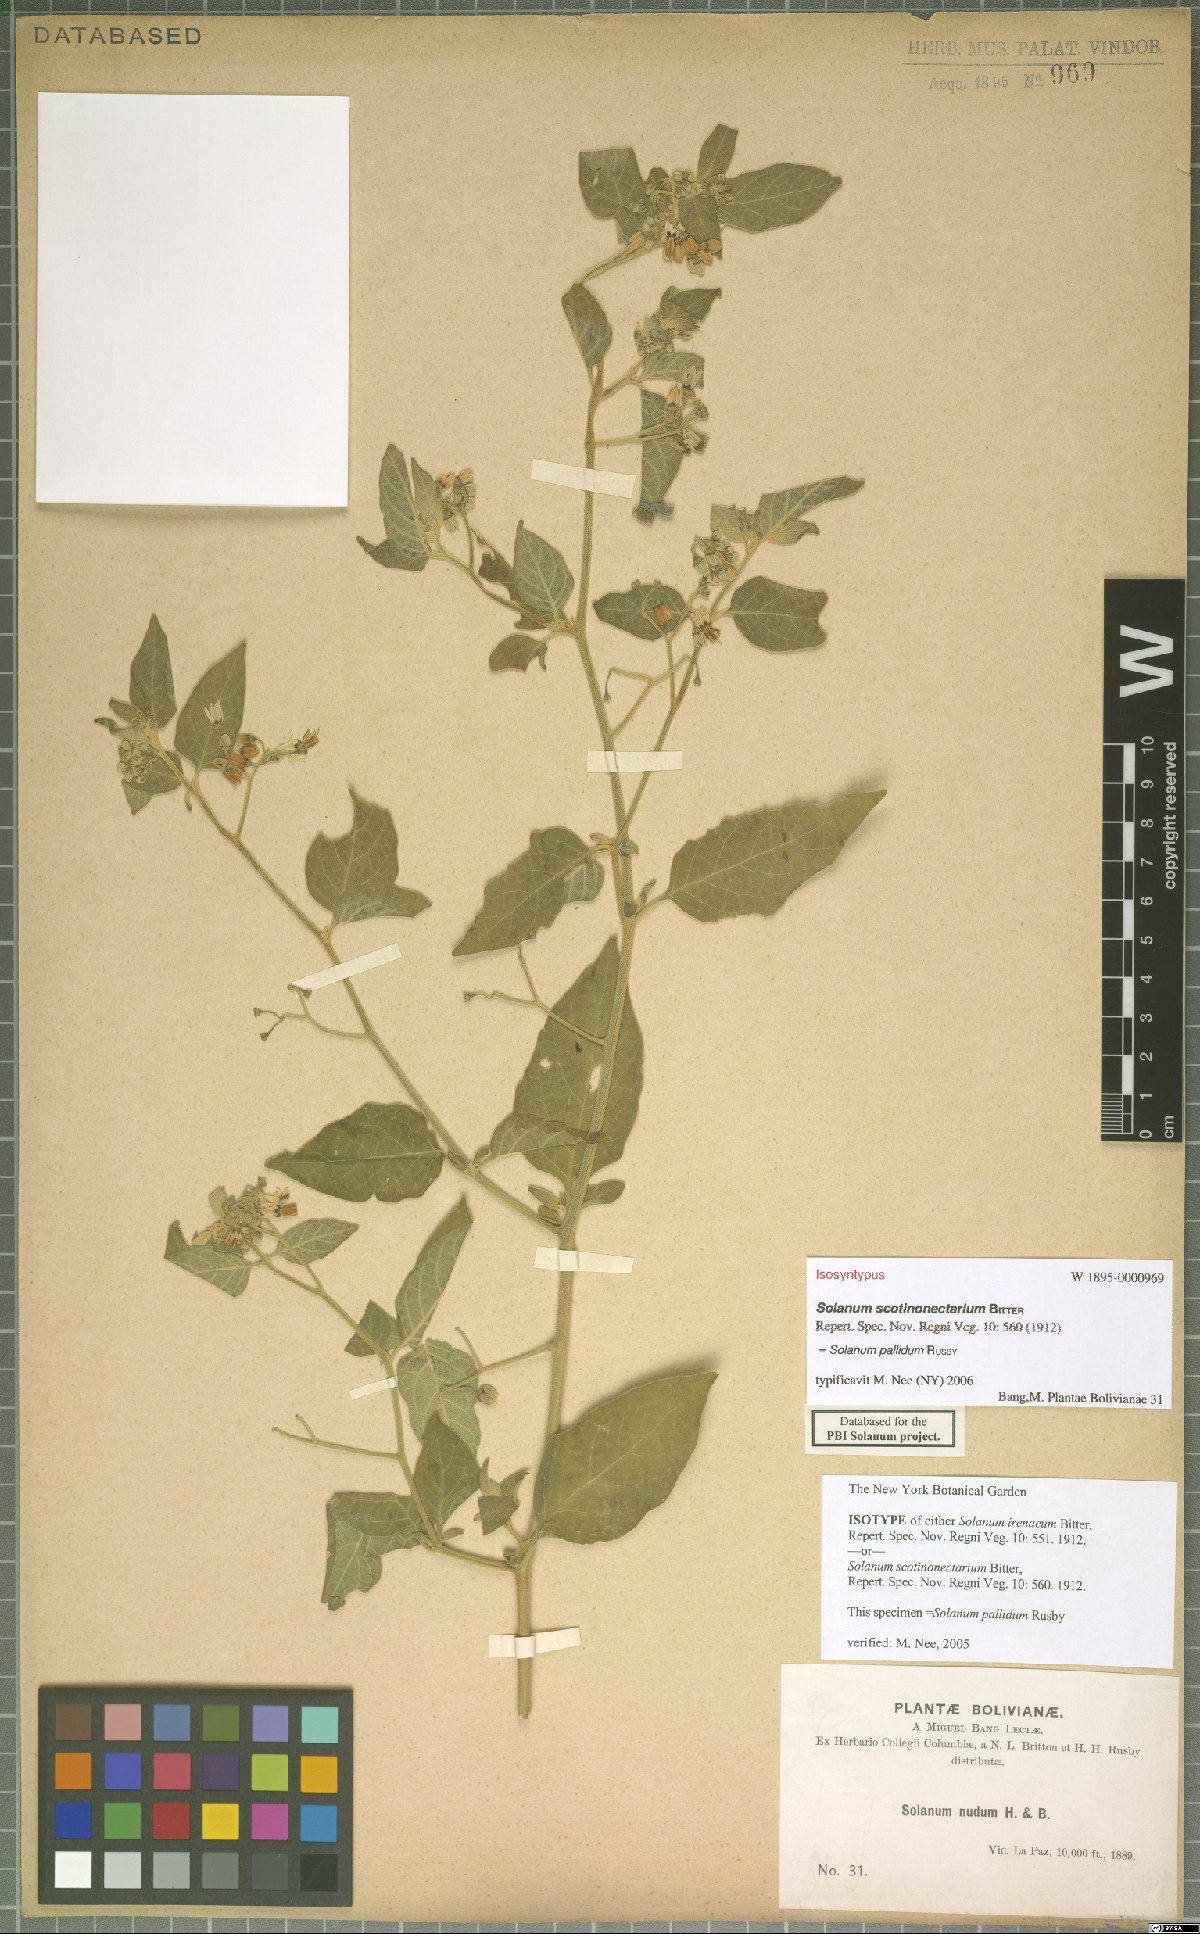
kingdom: Plantae
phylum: Tracheophyta
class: Magnoliopsida
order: Solanales
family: Solanaceae
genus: Solanum
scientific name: Solanum pallidum
